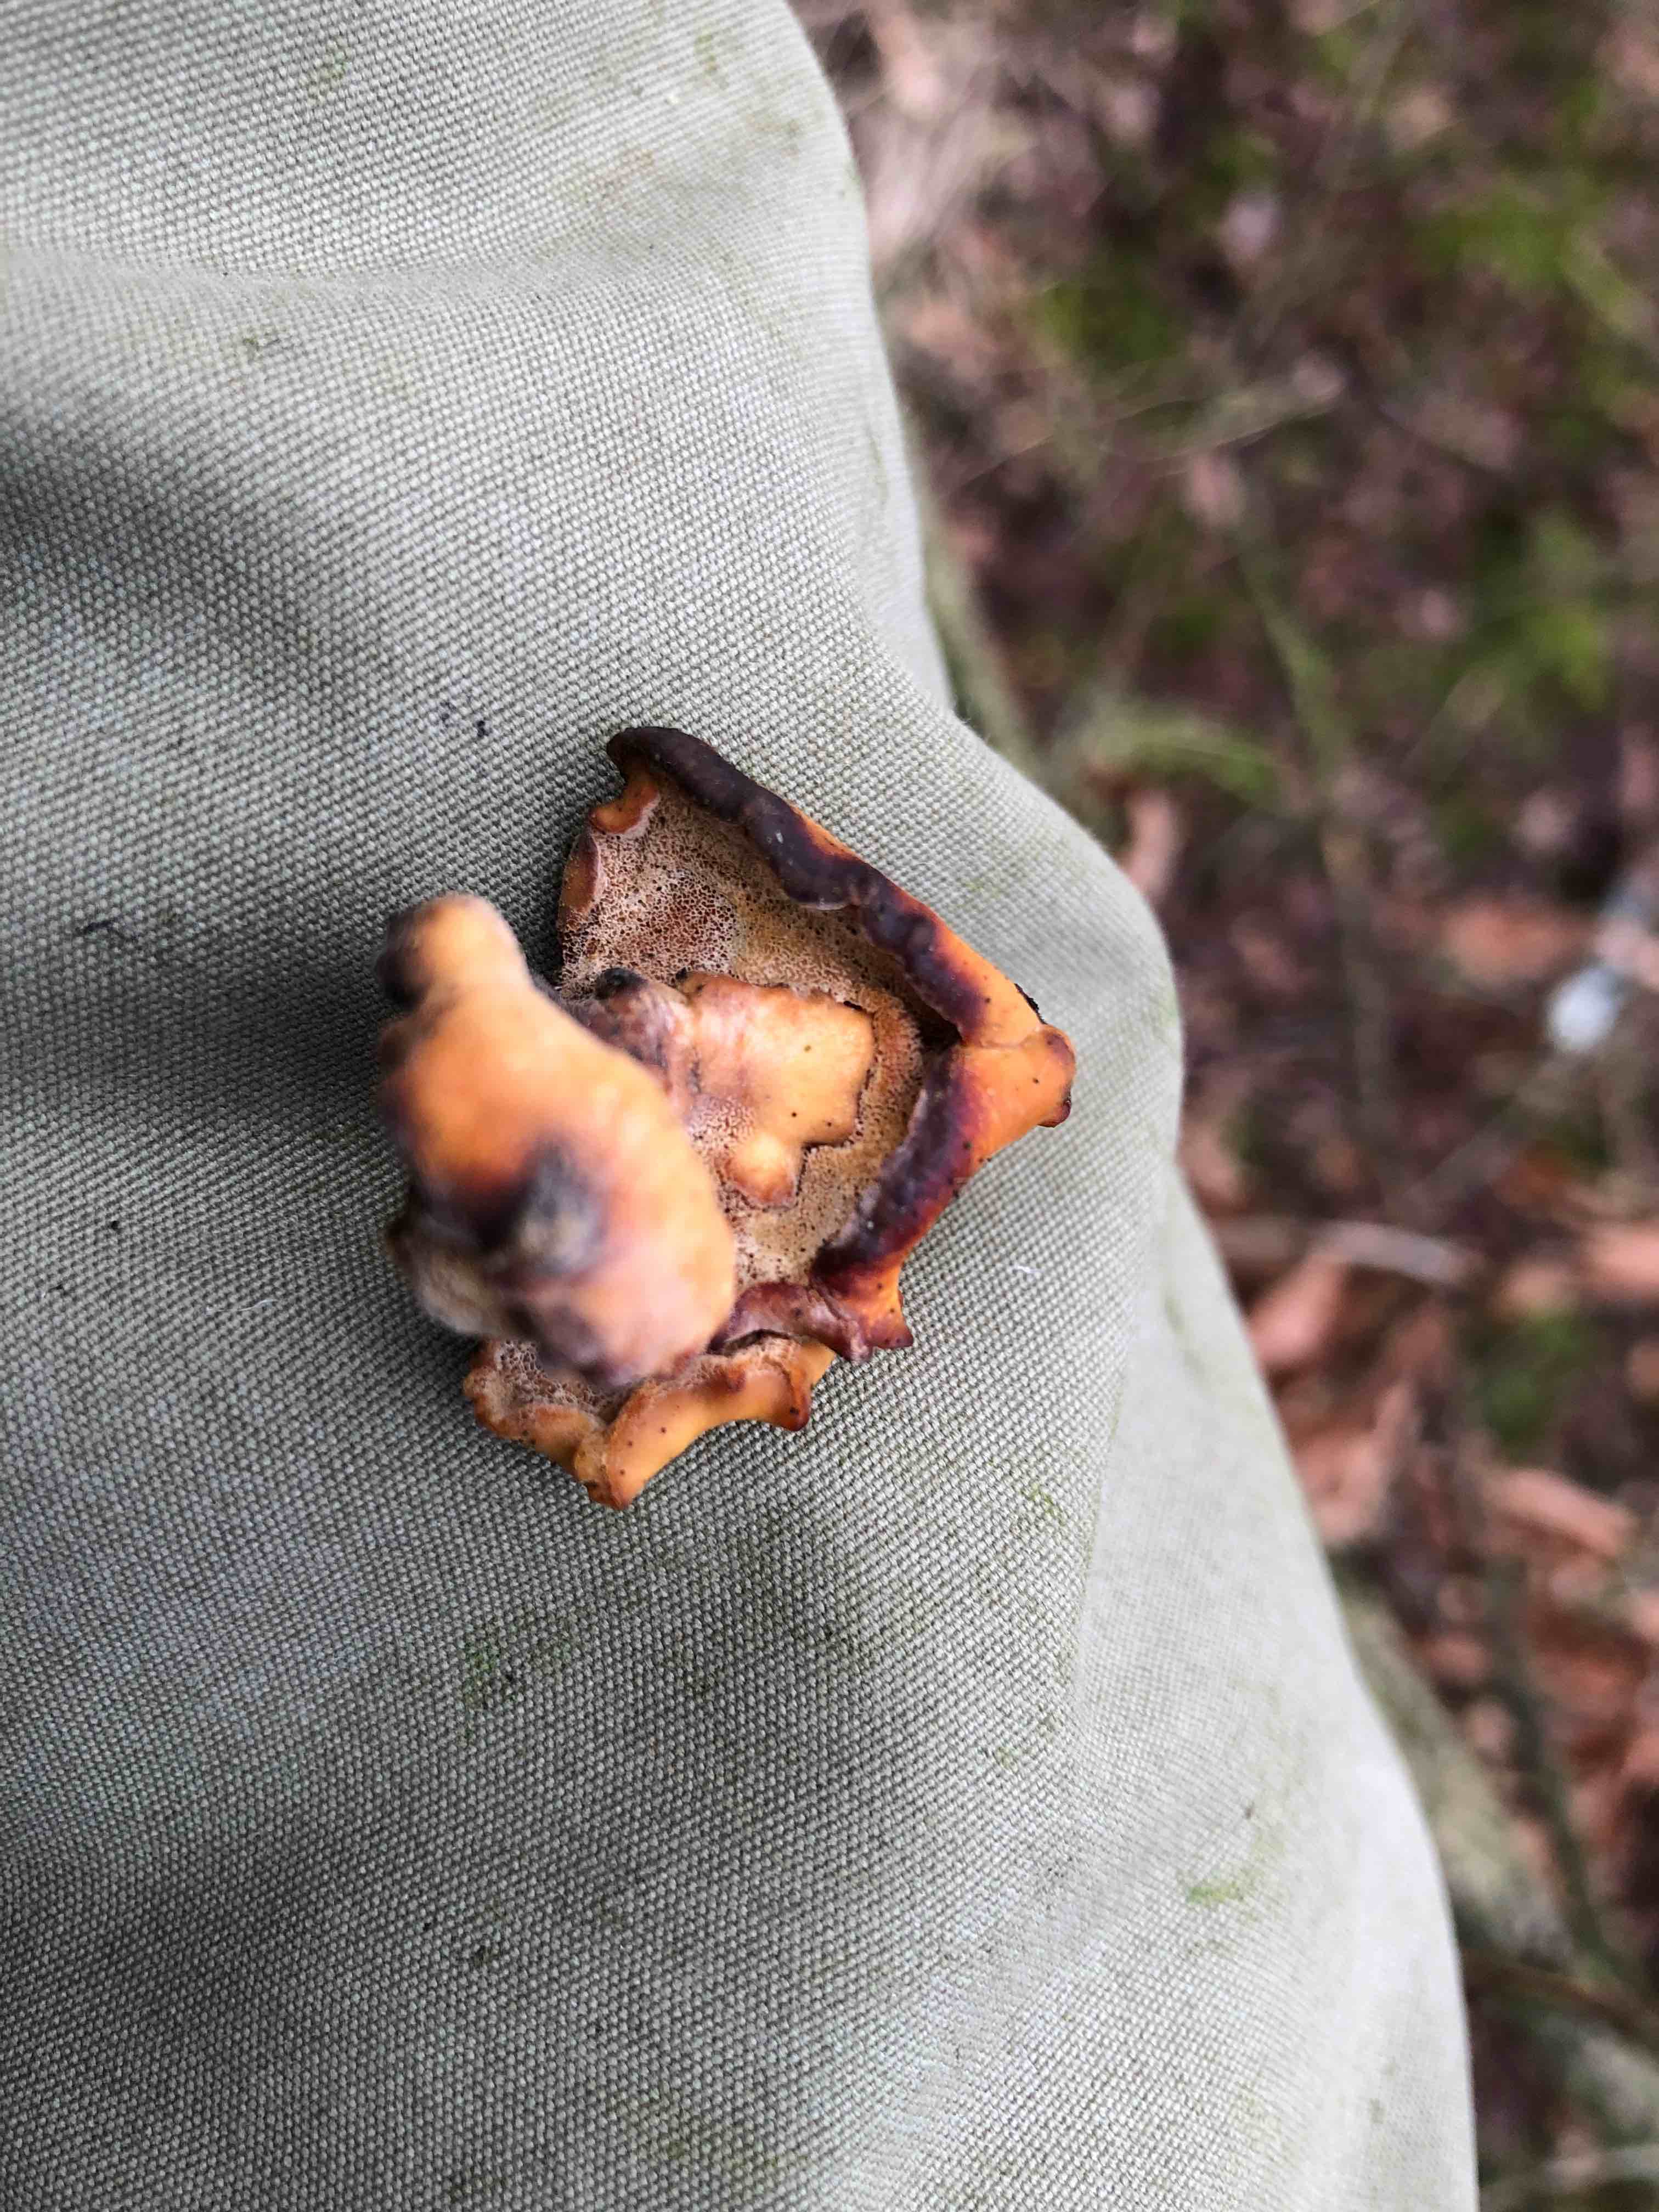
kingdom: Fungi
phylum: Basidiomycota
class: Agaricomycetes
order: Polyporales
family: Polyporaceae
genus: Cerioporus
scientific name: Cerioporus varius
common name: foranderlig stilkporesvamp
